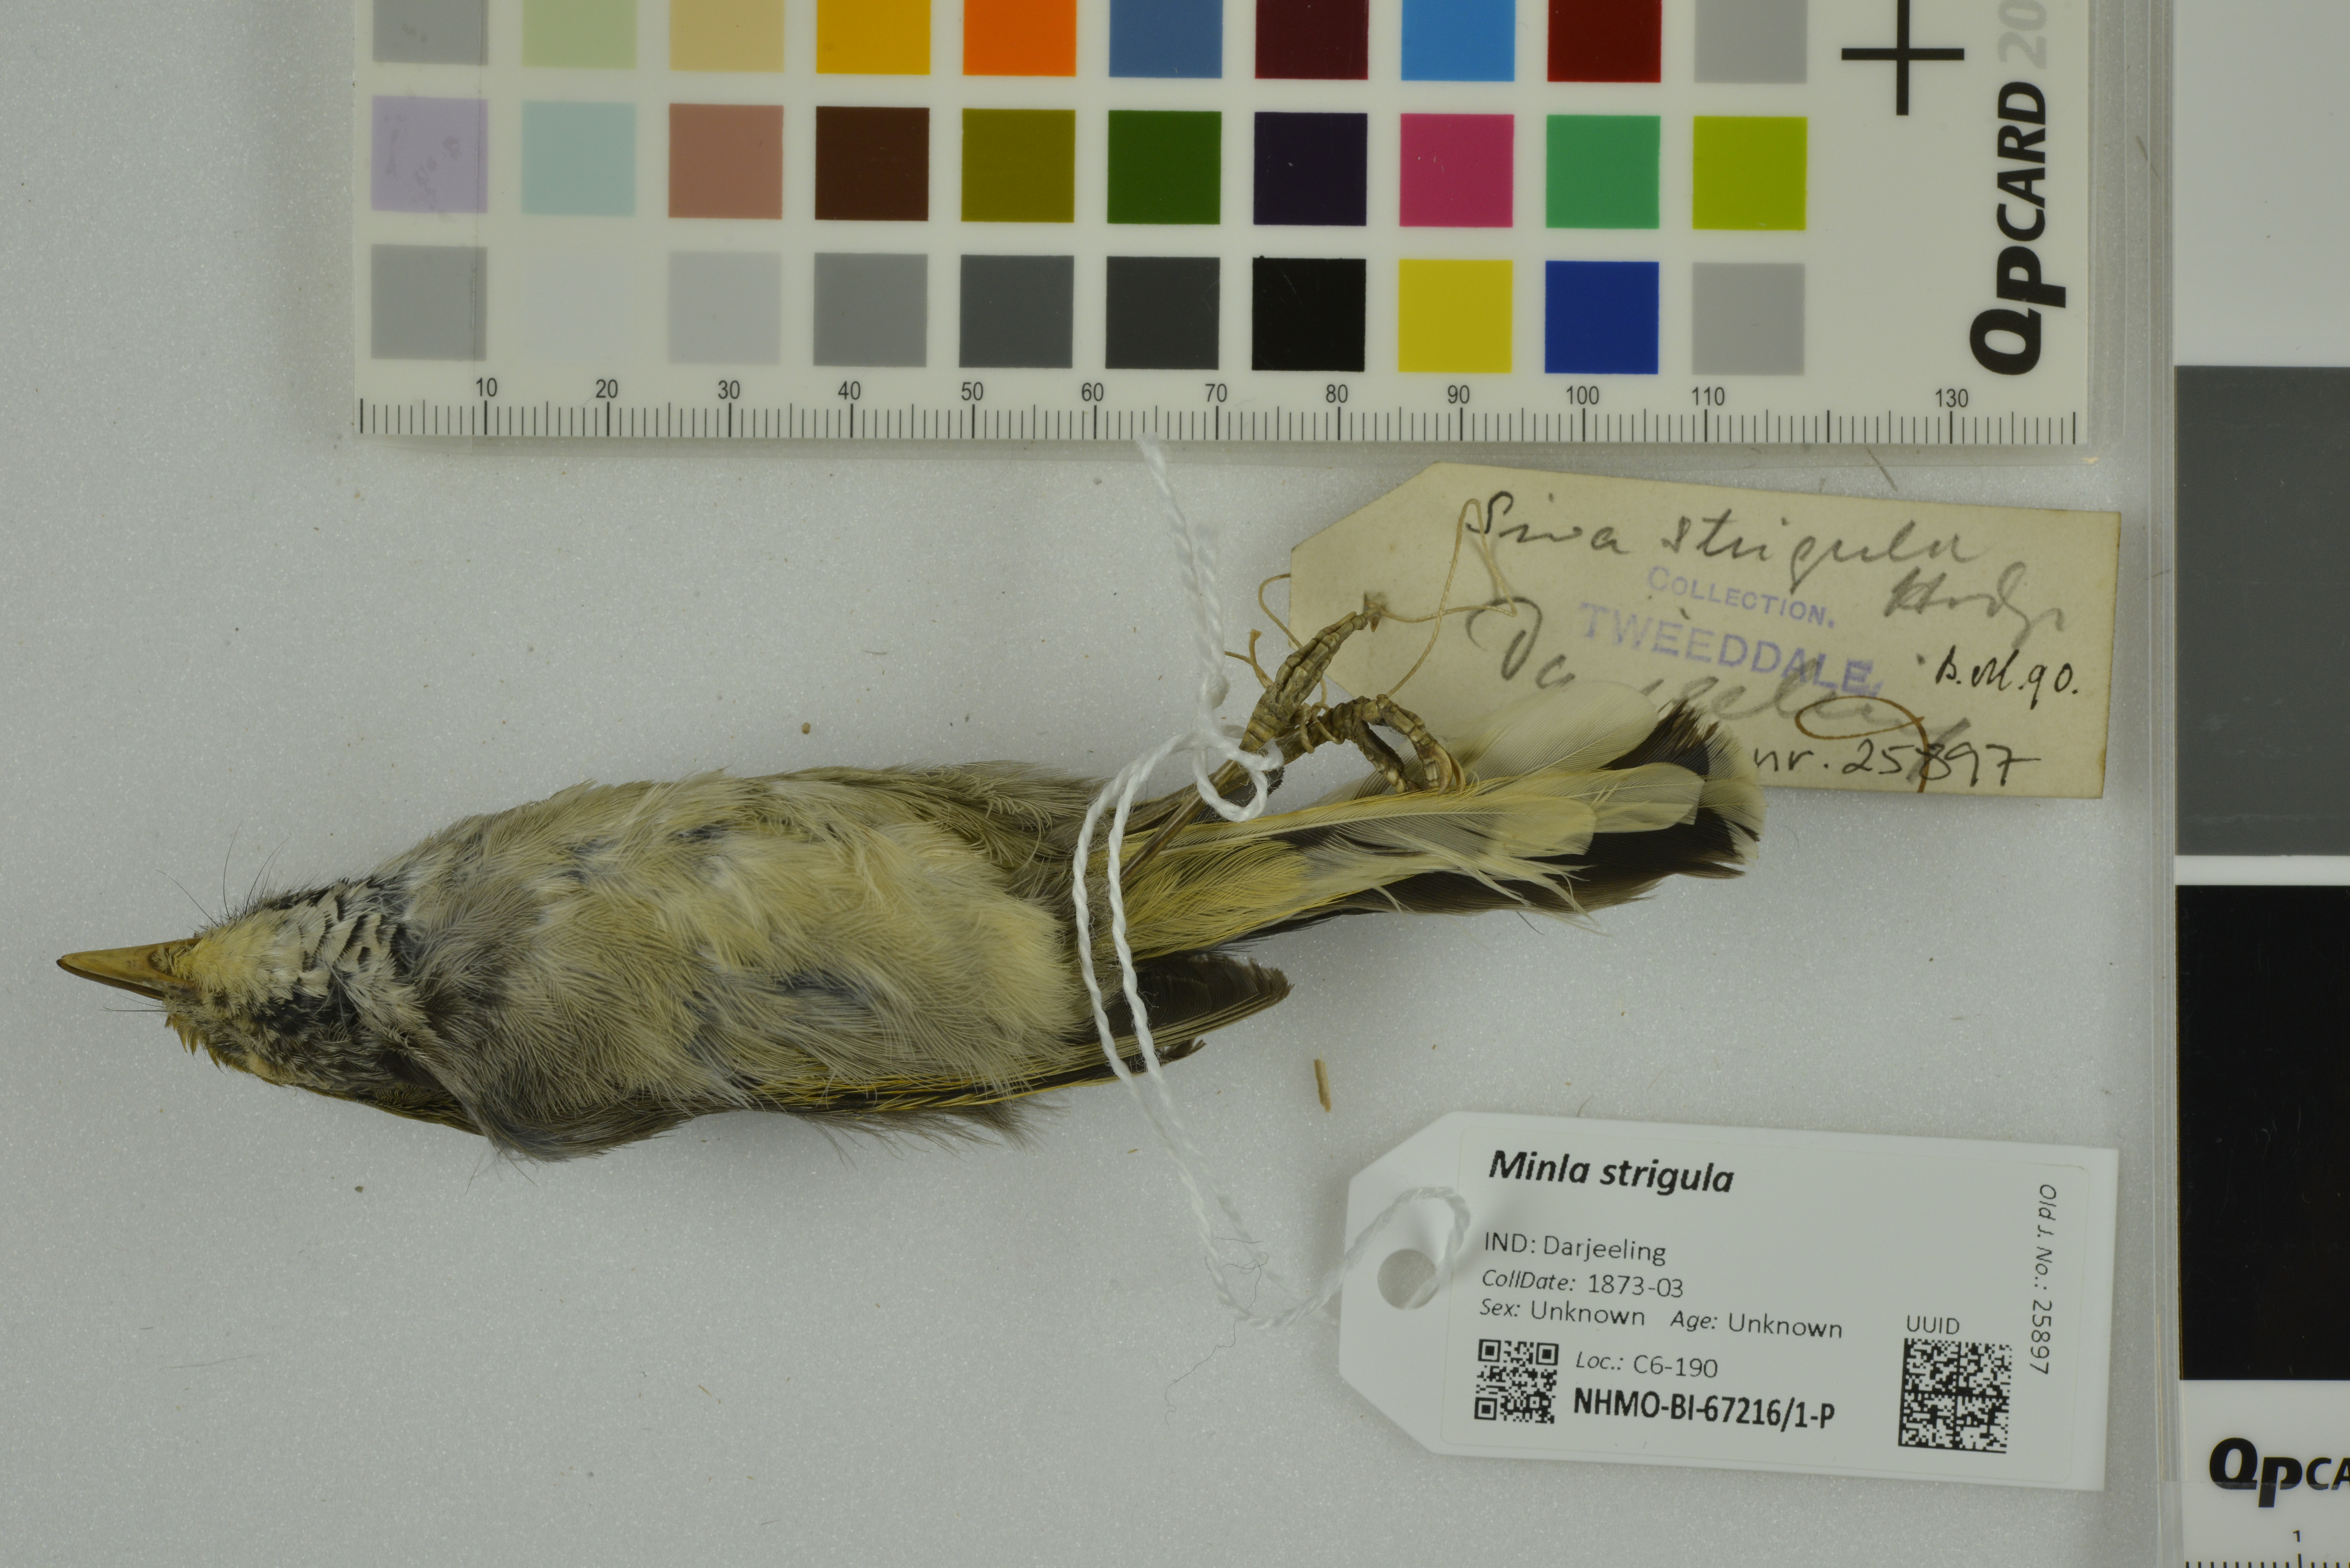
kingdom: Animalia
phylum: Chordata
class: Aves
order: Passeriformes
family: Leiothrichidae
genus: Minla
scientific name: Minla strigula
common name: Chestnut-tailed minla
